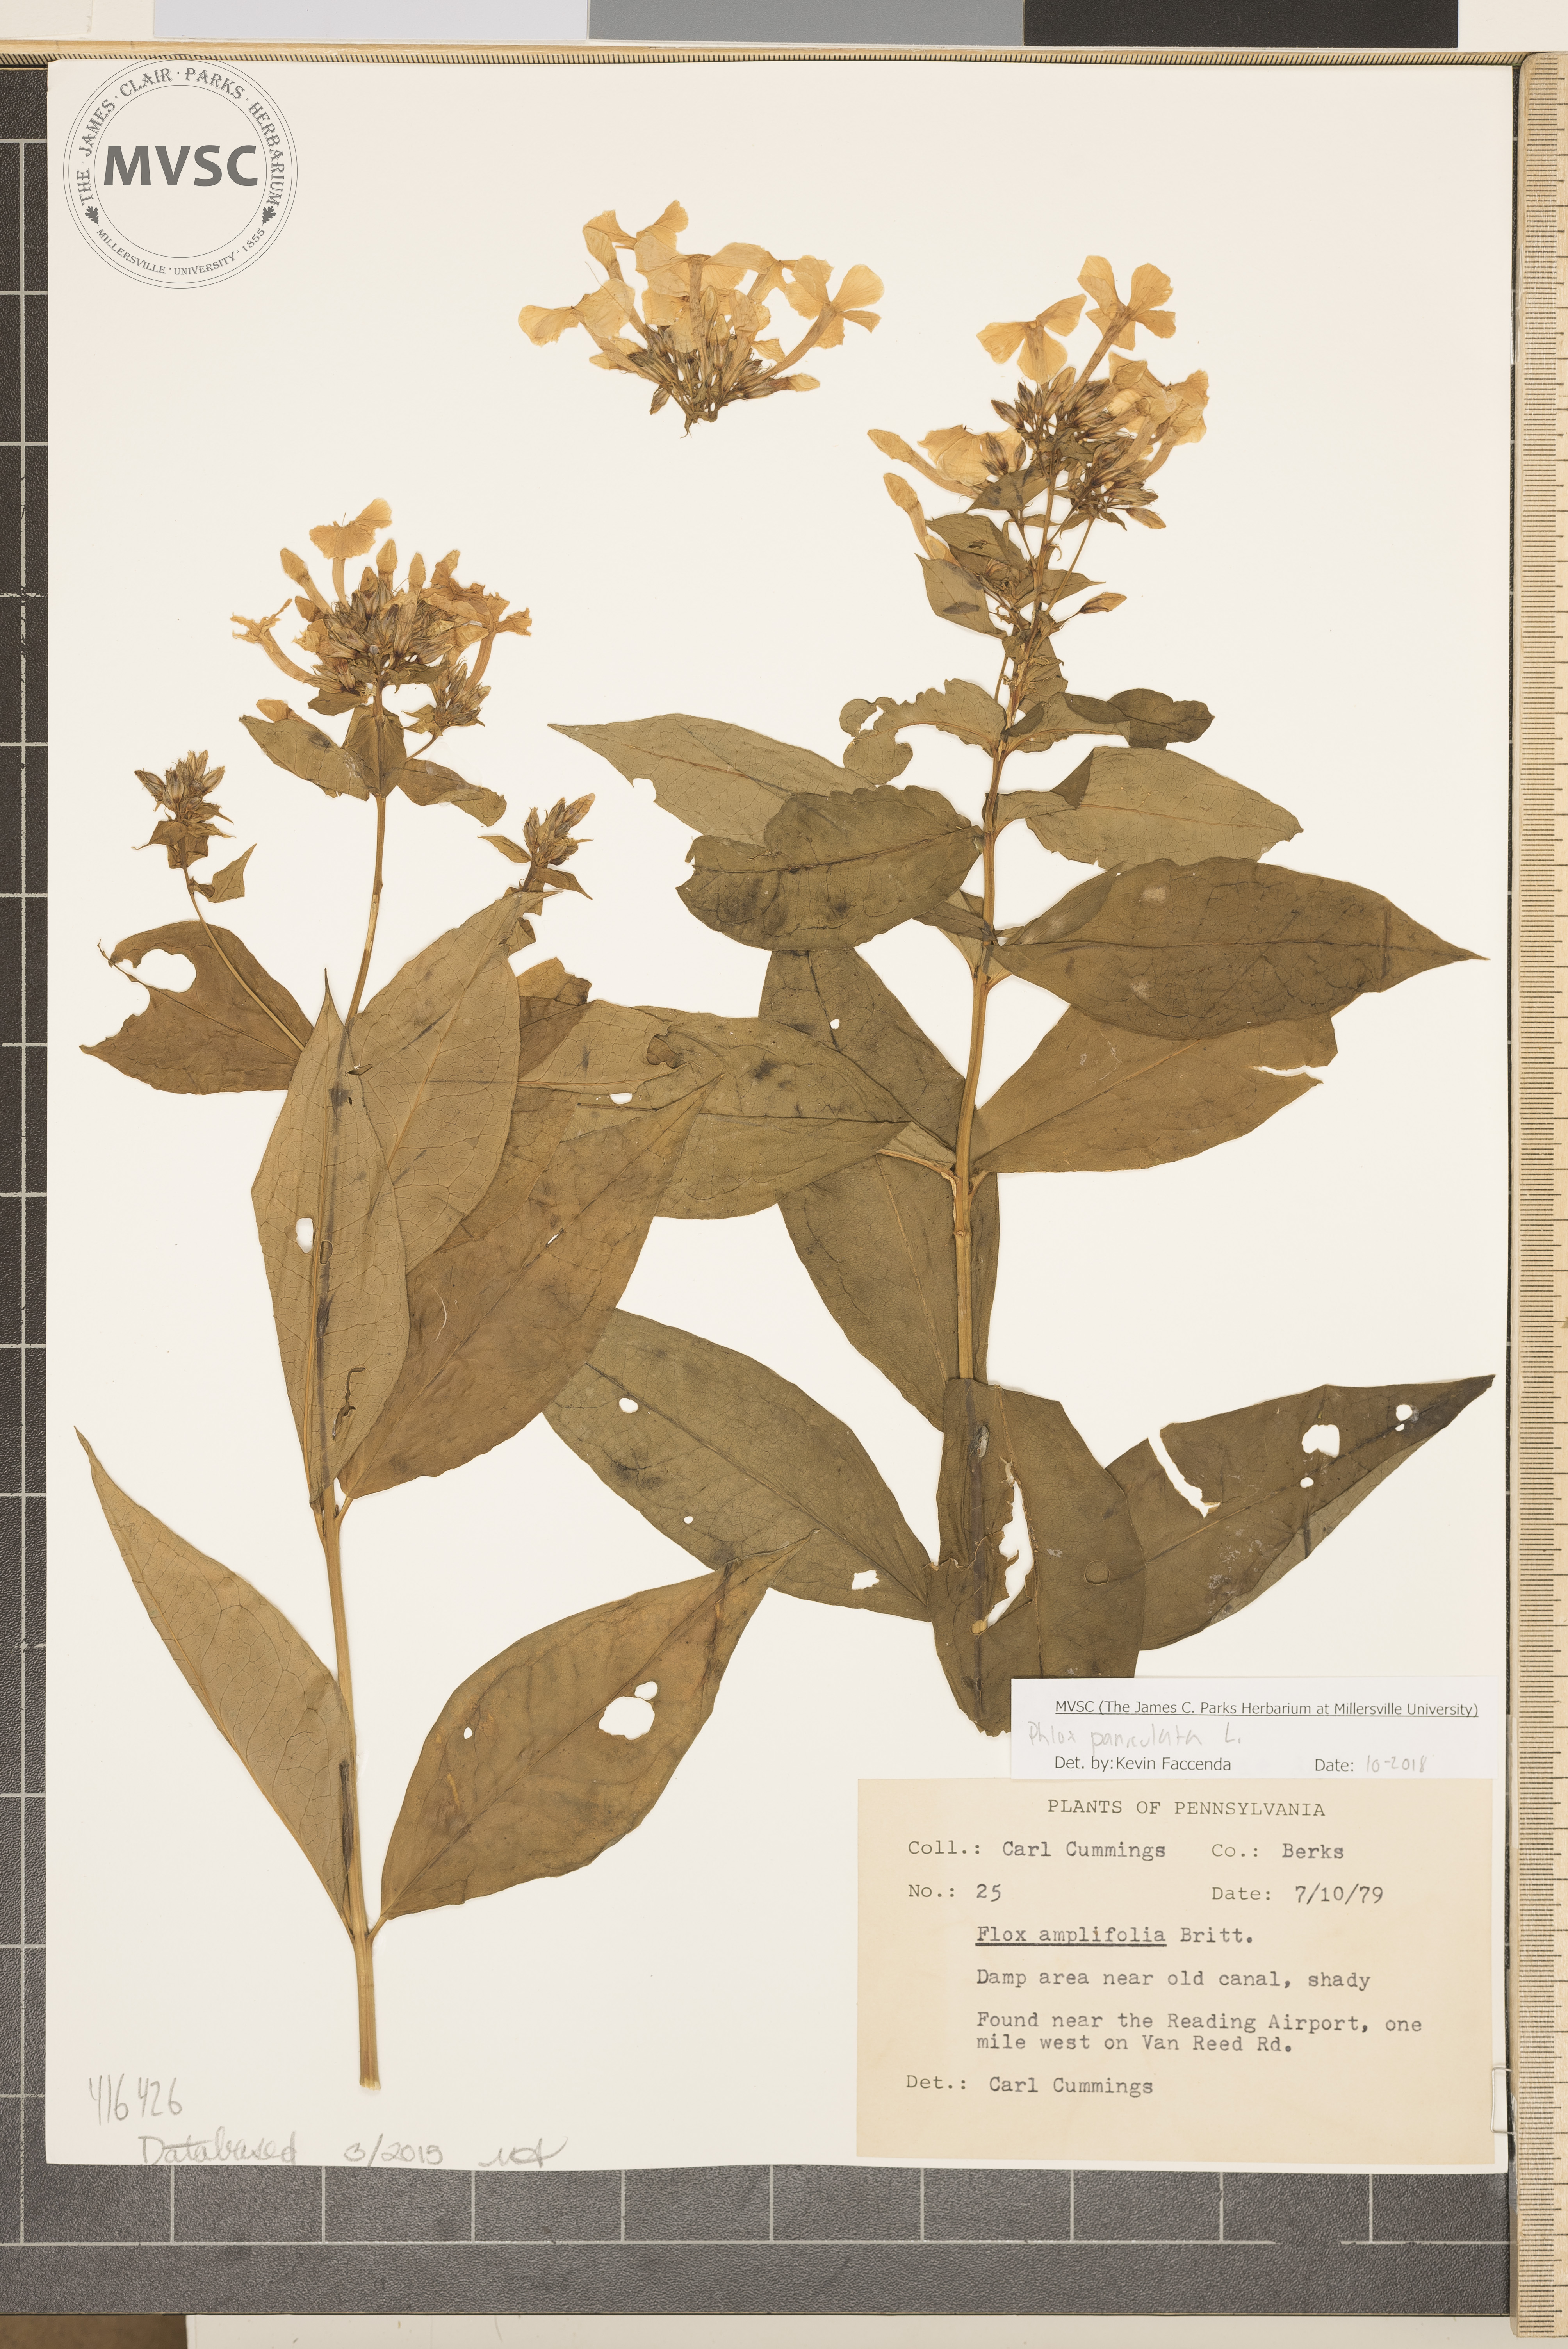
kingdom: Plantae
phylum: Tracheophyta
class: Magnoliopsida
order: Ericales
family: Polemoniaceae
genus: Phlox
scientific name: Phlox paniculata
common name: Fall phlox
